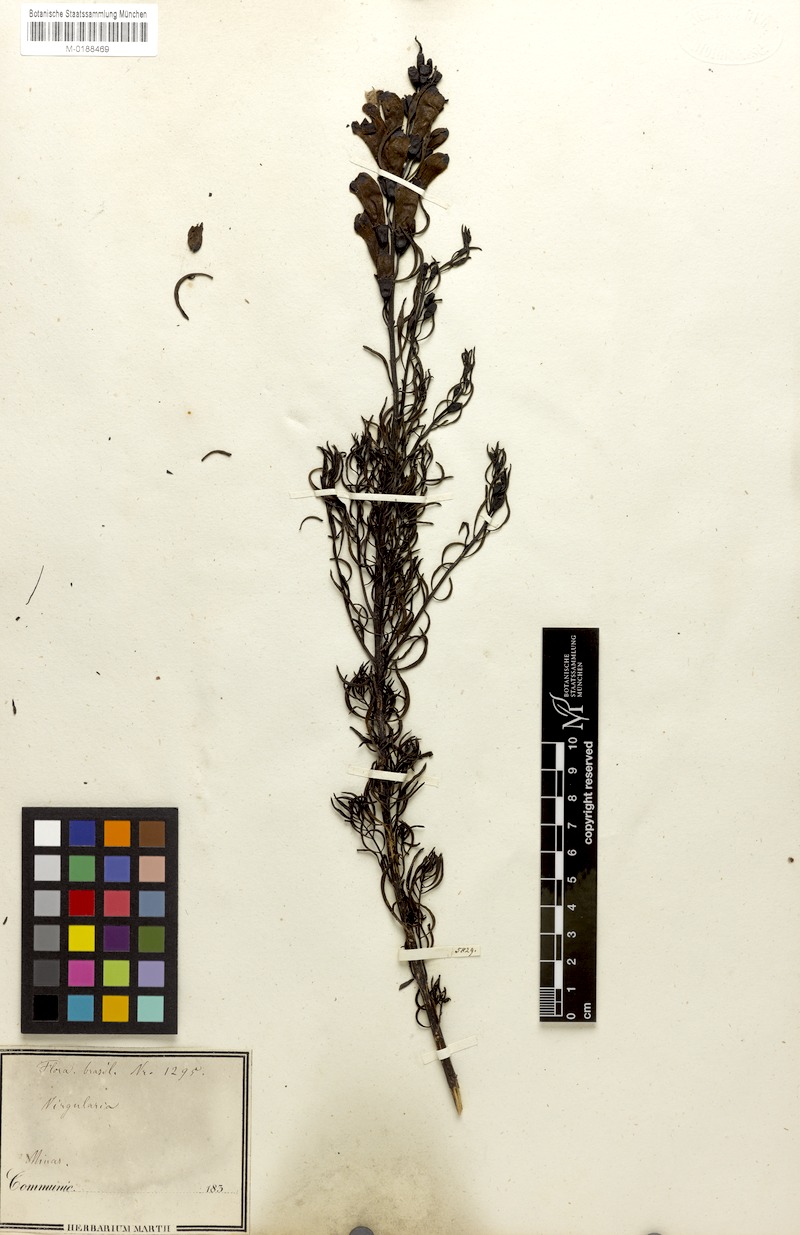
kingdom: Plantae
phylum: Tracheophyta
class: Magnoliopsida
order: Lamiales
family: Orobanchaceae
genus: Esterhazya
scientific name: Esterhazya splendida
